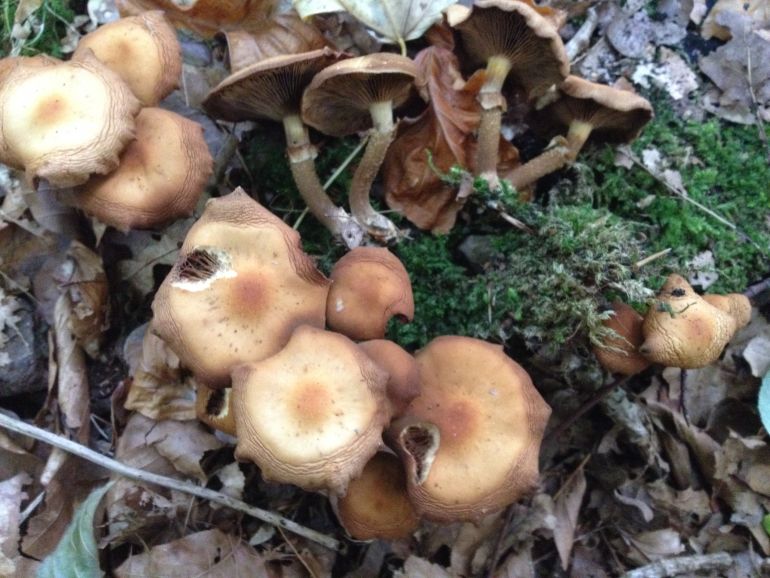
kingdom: Fungi
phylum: Basidiomycota
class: Agaricomycetes
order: Agaricales
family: Strophariaceae
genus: Kuehneromyces
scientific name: Kuehneromyces mutabilis
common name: foranderlig skælhat
